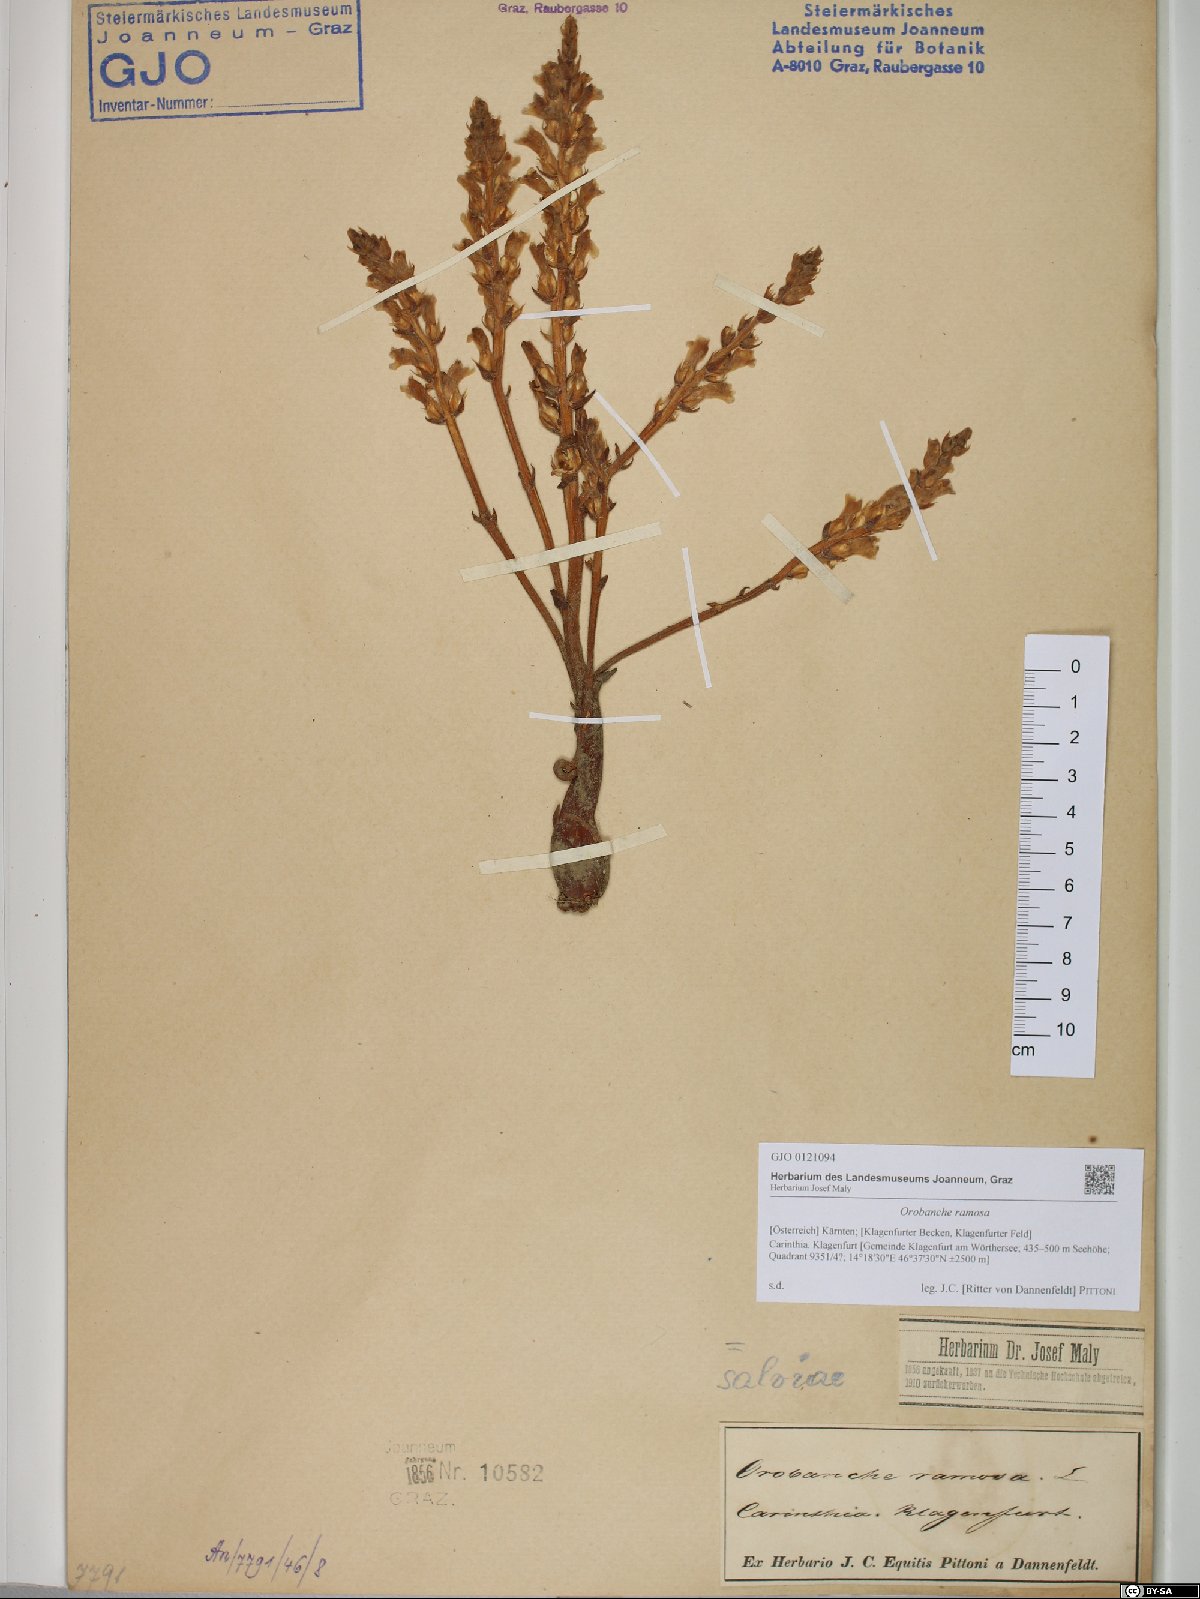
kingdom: Plantae
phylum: Tracheophyta
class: Magnoliopsida
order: Lamiales
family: Orobanchaceae
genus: Phelipanche
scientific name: Phelipanche ramosa
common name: Branched broomrape
